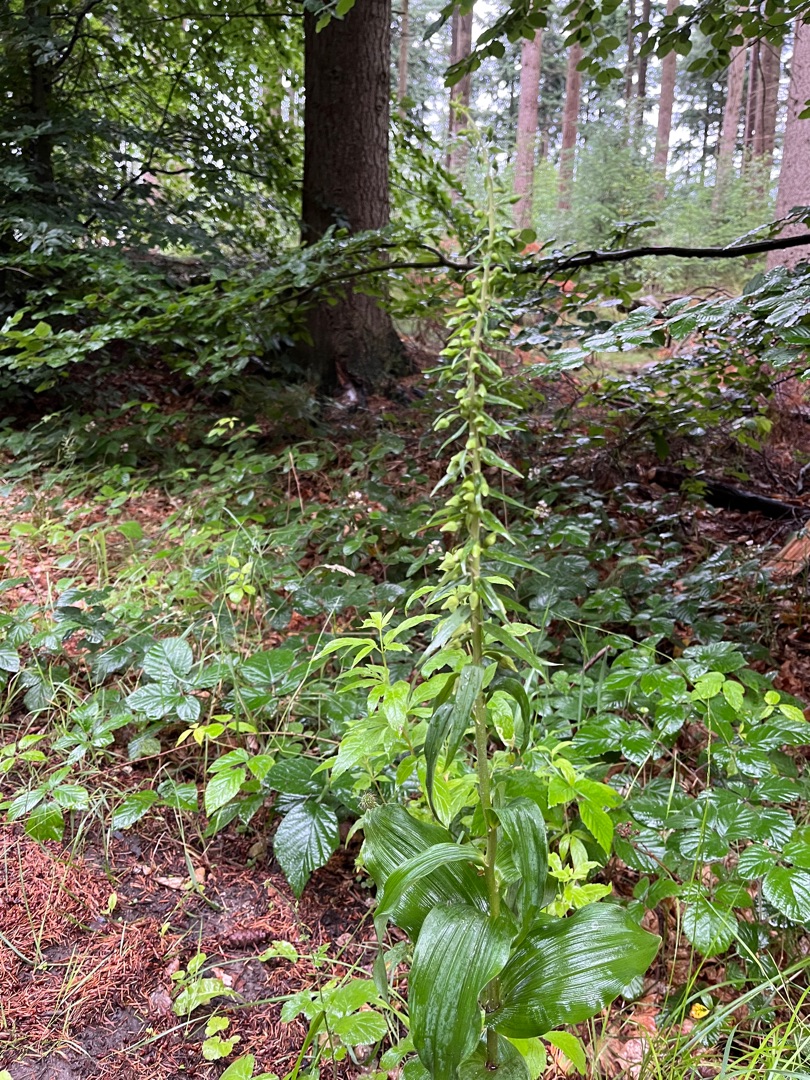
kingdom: Plantae
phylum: Tracheophyta
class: Liliopsida
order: Asparagales
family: Orchidaceae
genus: Epipactis
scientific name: Epipactis helleborine
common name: Skov-hullæbe
